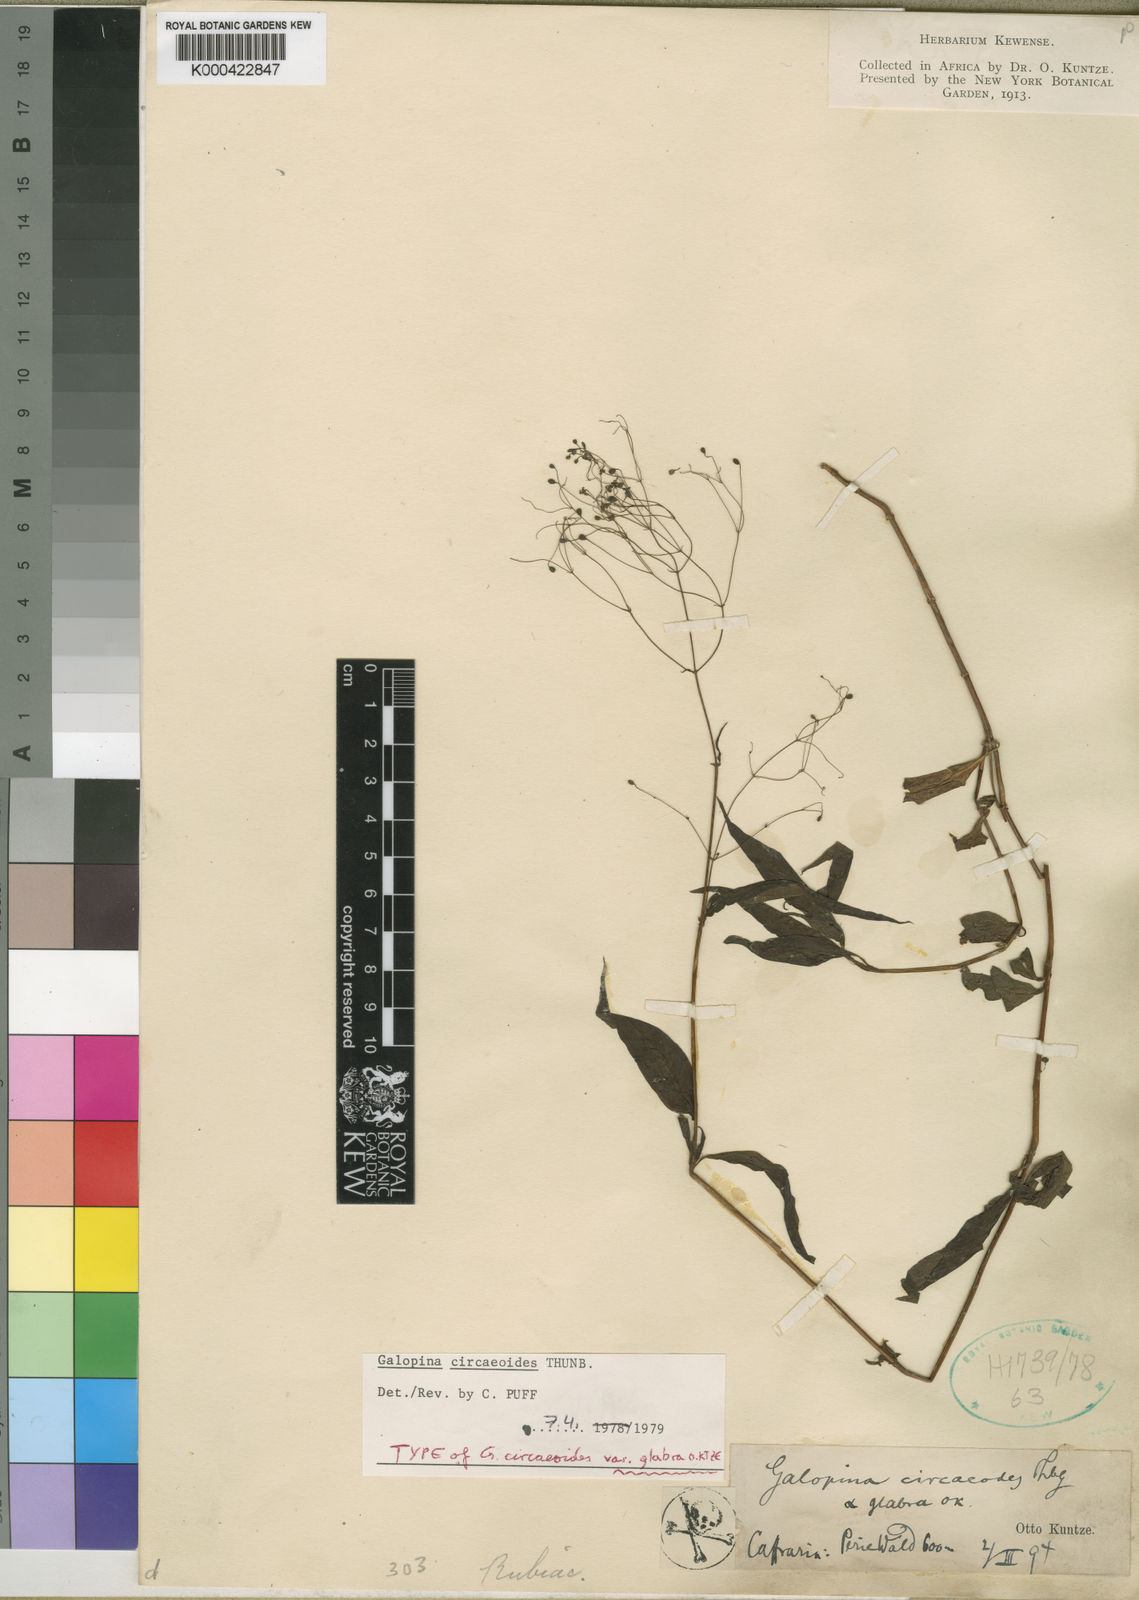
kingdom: Plantae
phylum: Tracheophyta
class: Magnoliopsida
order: Gentianales
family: Rubiaceae
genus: Galopina
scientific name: Galopina circaeoides
